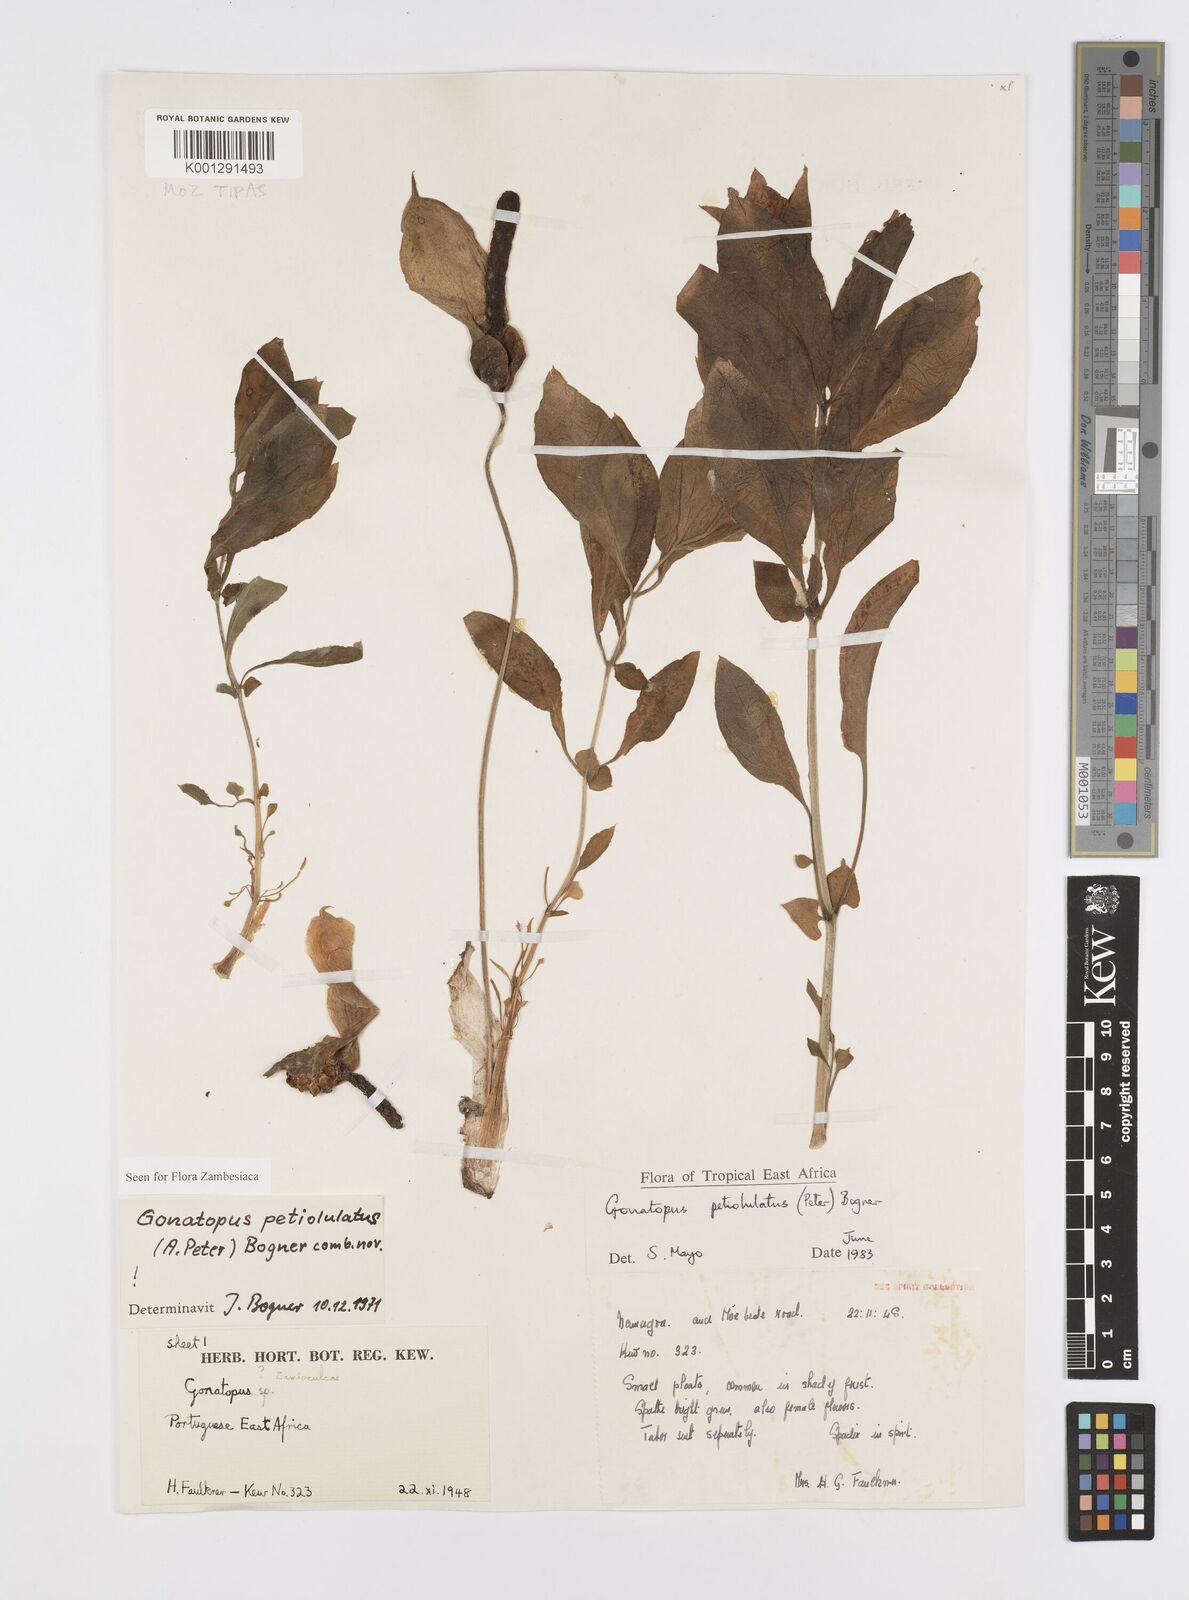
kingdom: Plantae
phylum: Tracheophyta
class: Liliopsida
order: Alismatales
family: Araceae
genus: Gonatopus
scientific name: Gonatopus petiolulatus
